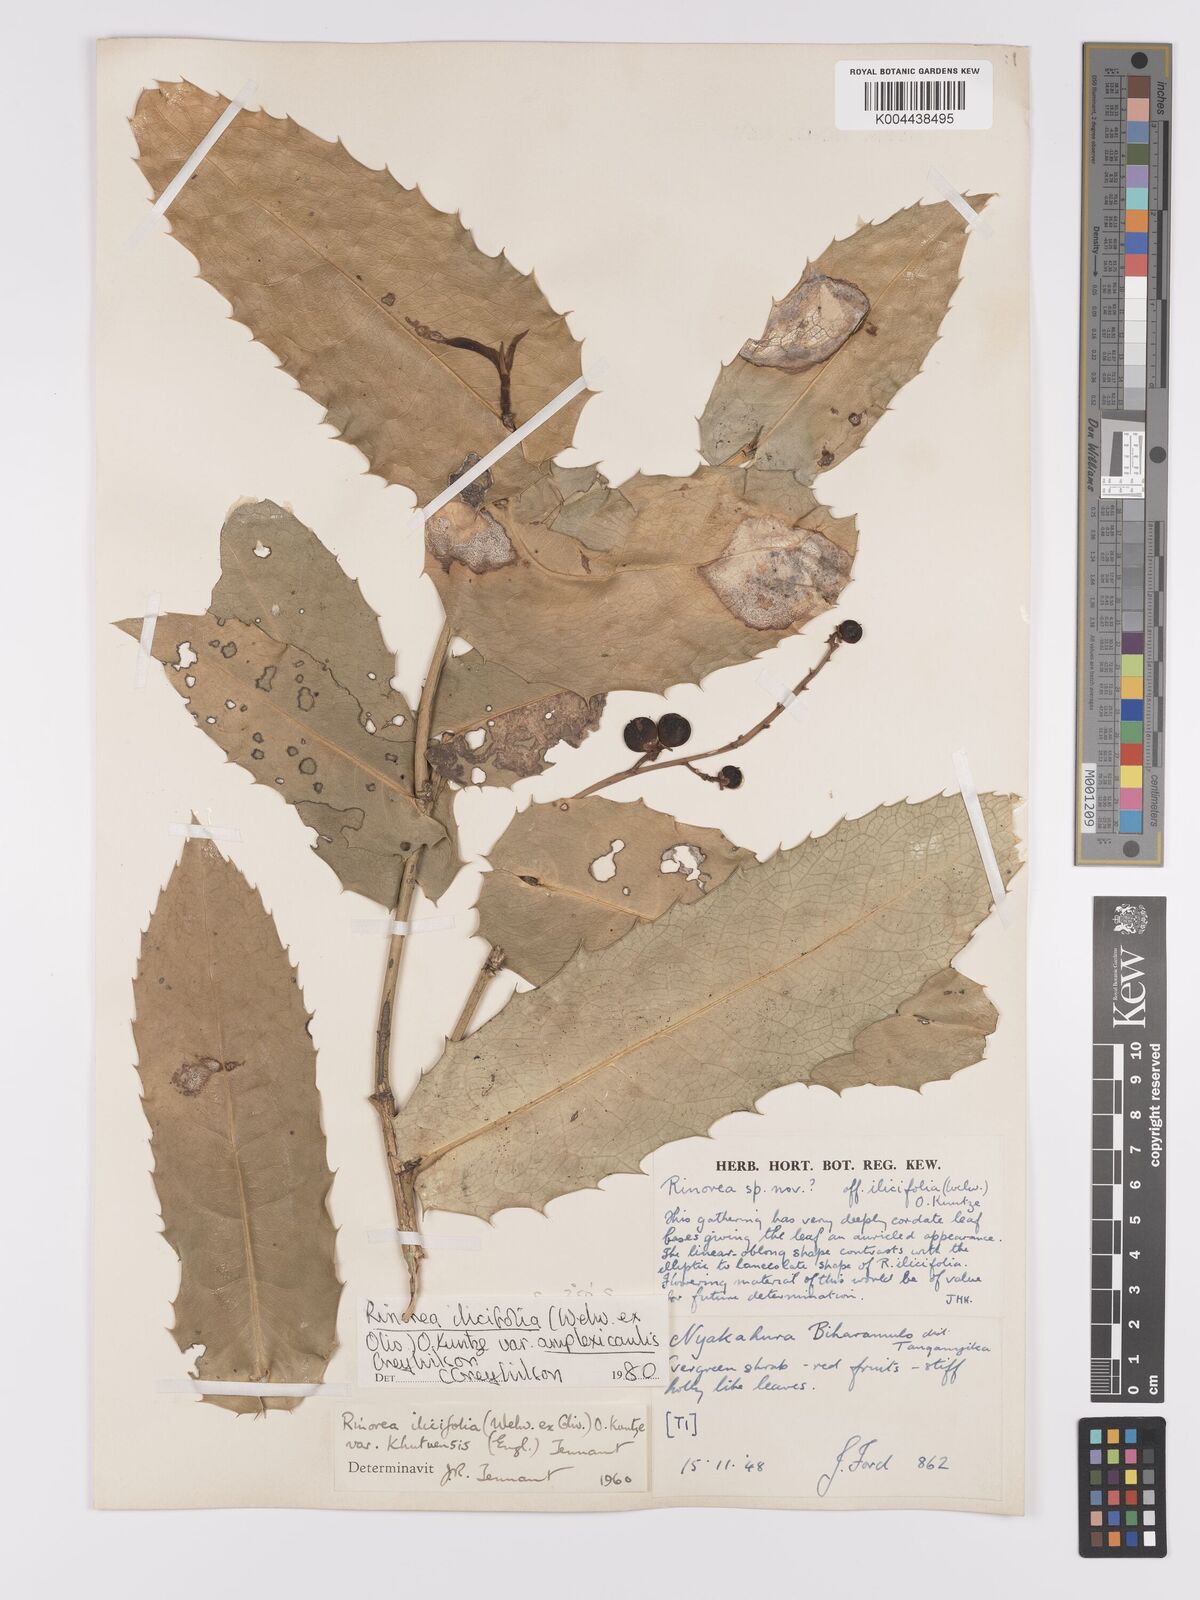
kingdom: Plantae
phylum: Tracheophyta
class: Magnoliopsida
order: Malpighiales
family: Violaceae
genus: Rinorea
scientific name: Rinorea ilicifolia
